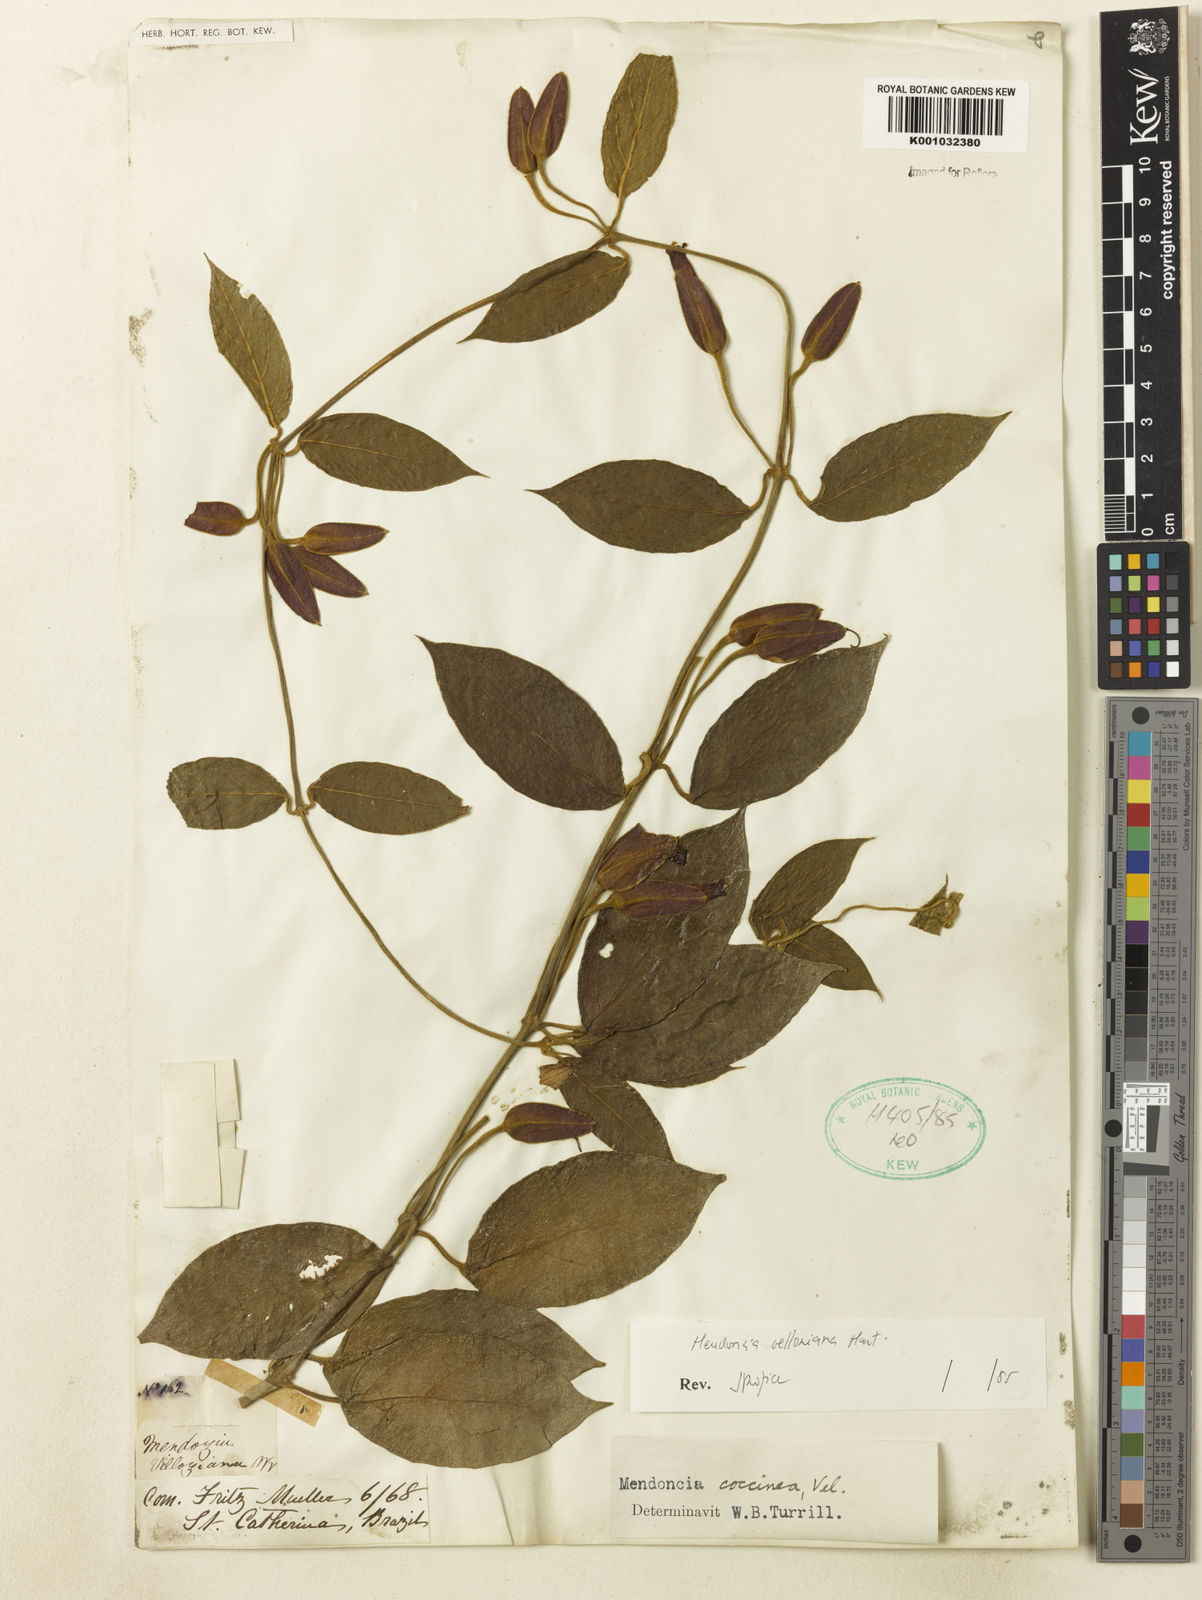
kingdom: Plantae
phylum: Tracheophyta
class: Magnoliopsida
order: Lamiales
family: Acanthaceae
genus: Mendoncia
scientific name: Mendoncia velloziana
